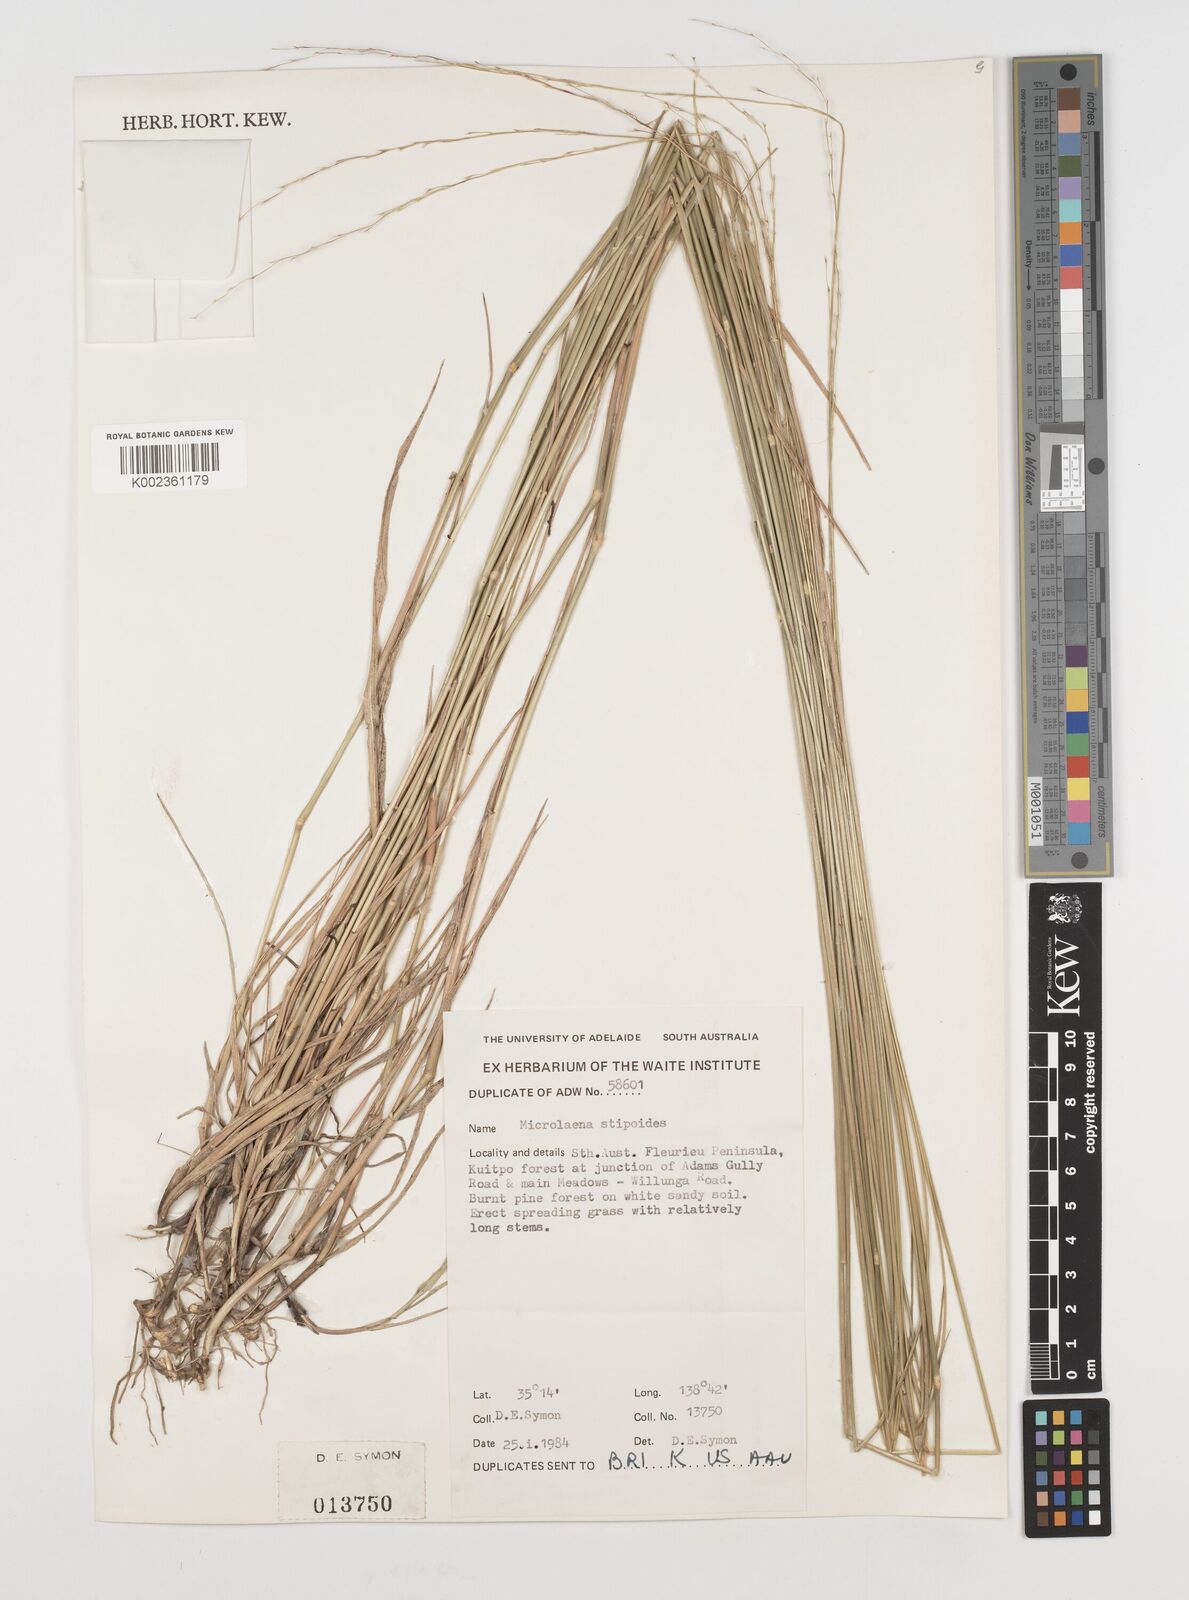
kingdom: Plantae
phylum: Tracheophyta
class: Liliopsida
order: Poales
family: Poaceae
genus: Microlaena
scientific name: Microlaena stipoides
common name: Meadow ricegrass
